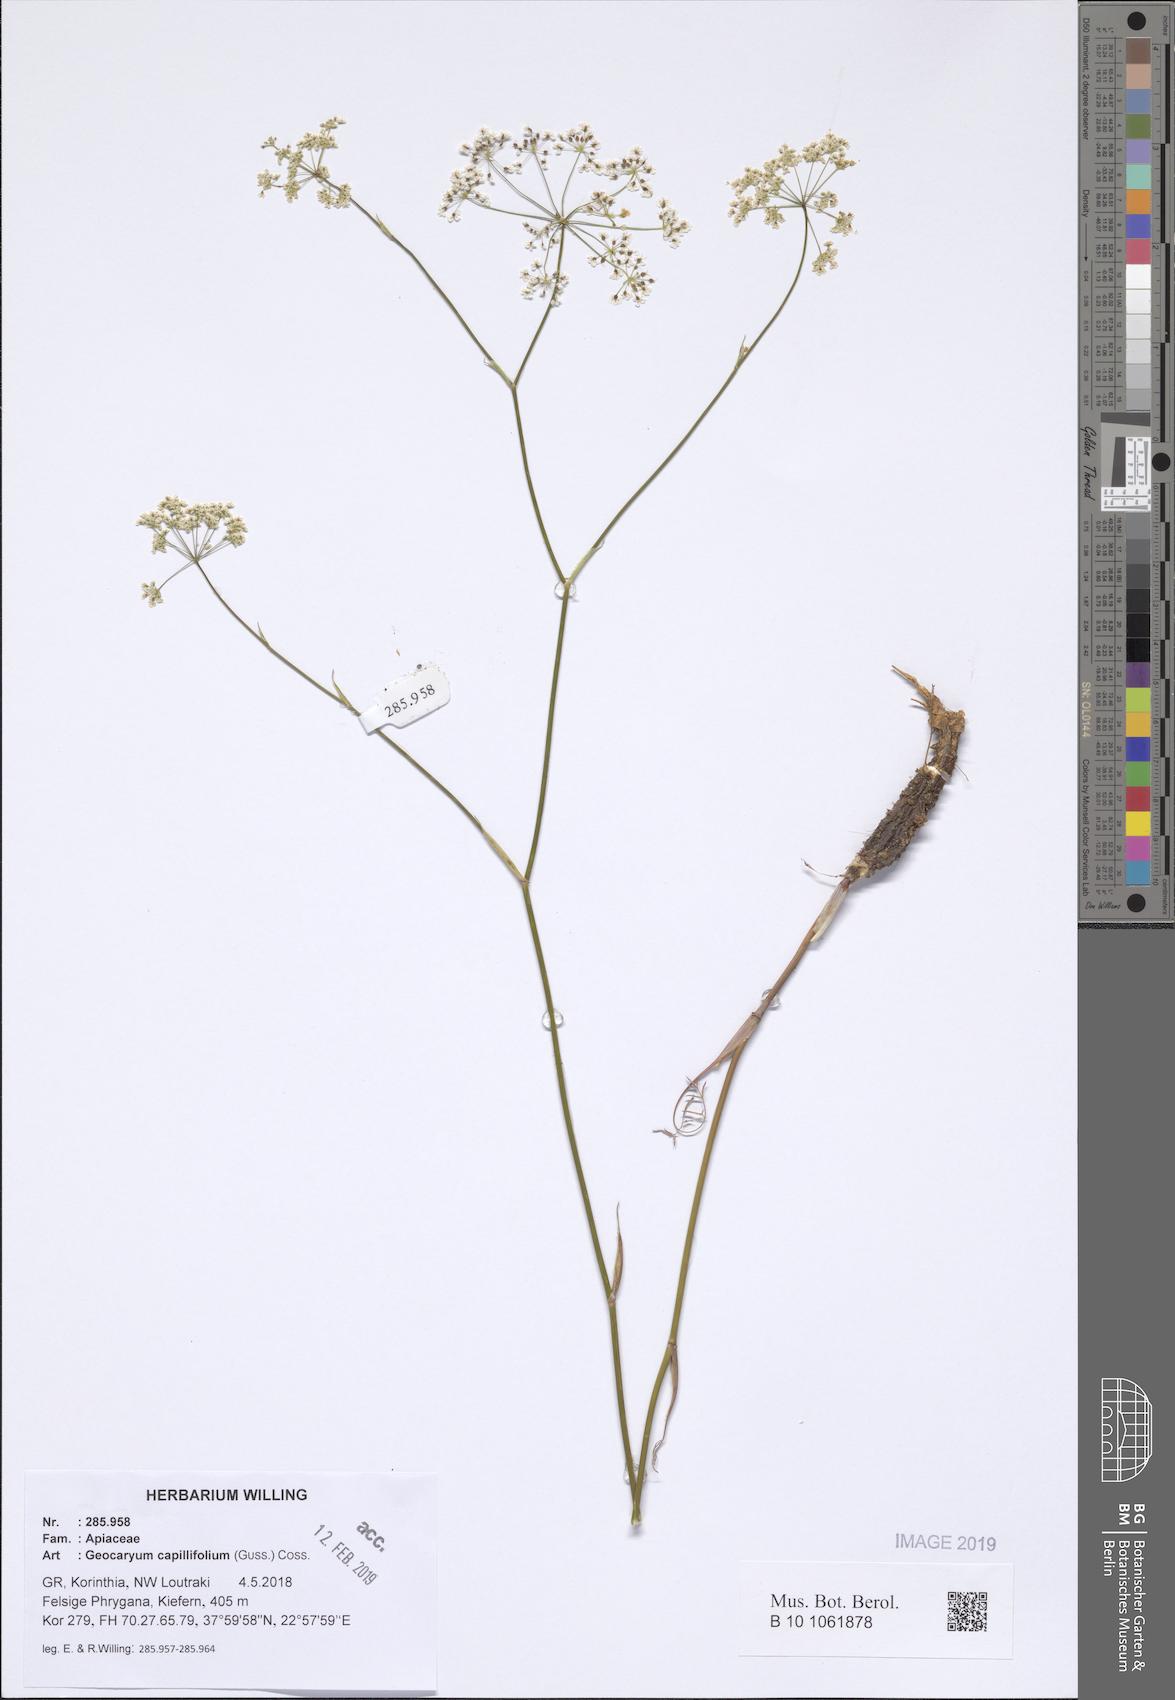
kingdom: Plantae
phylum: Tracheophyta
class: Magnoliopsida
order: Apiales
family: Apiaceae
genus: Geocaryum
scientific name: Geocaryum capillifolium
